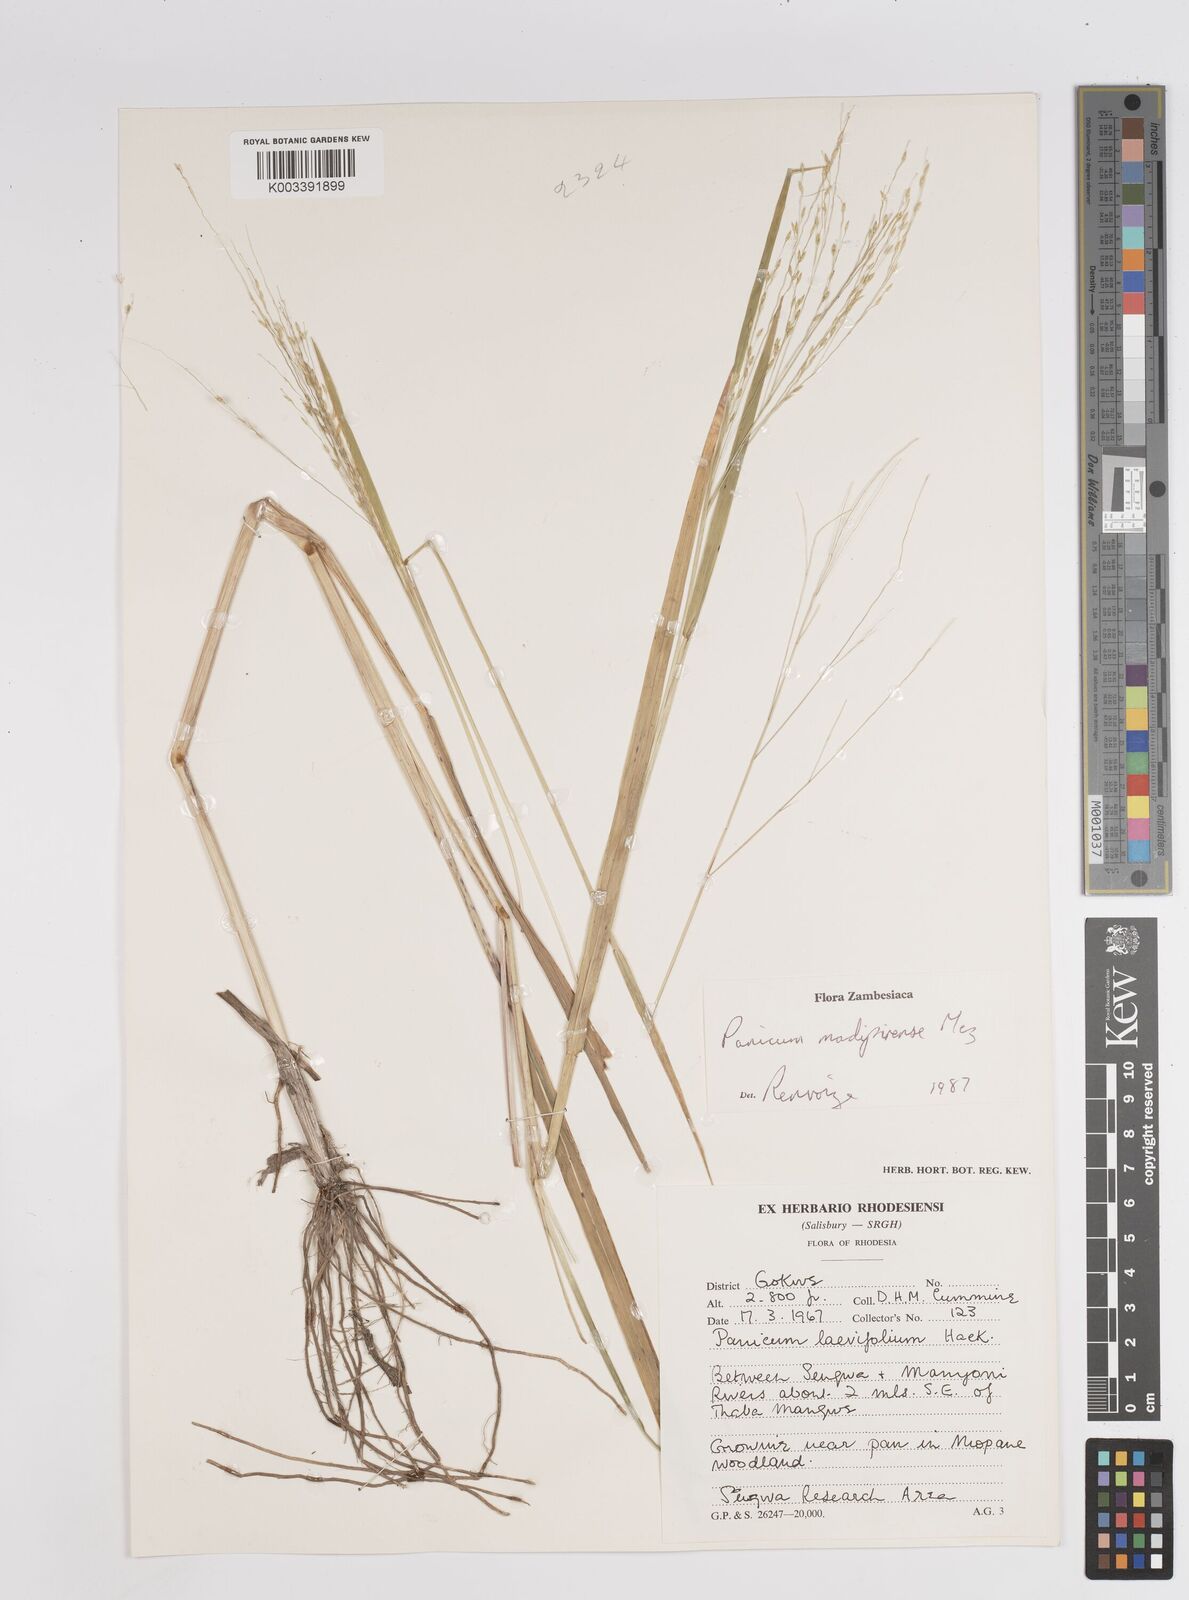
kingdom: Plantae
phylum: Tracheophyta
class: Liliopsida
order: Poales
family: Poaceae
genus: Panicum
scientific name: Panicum madipirense
